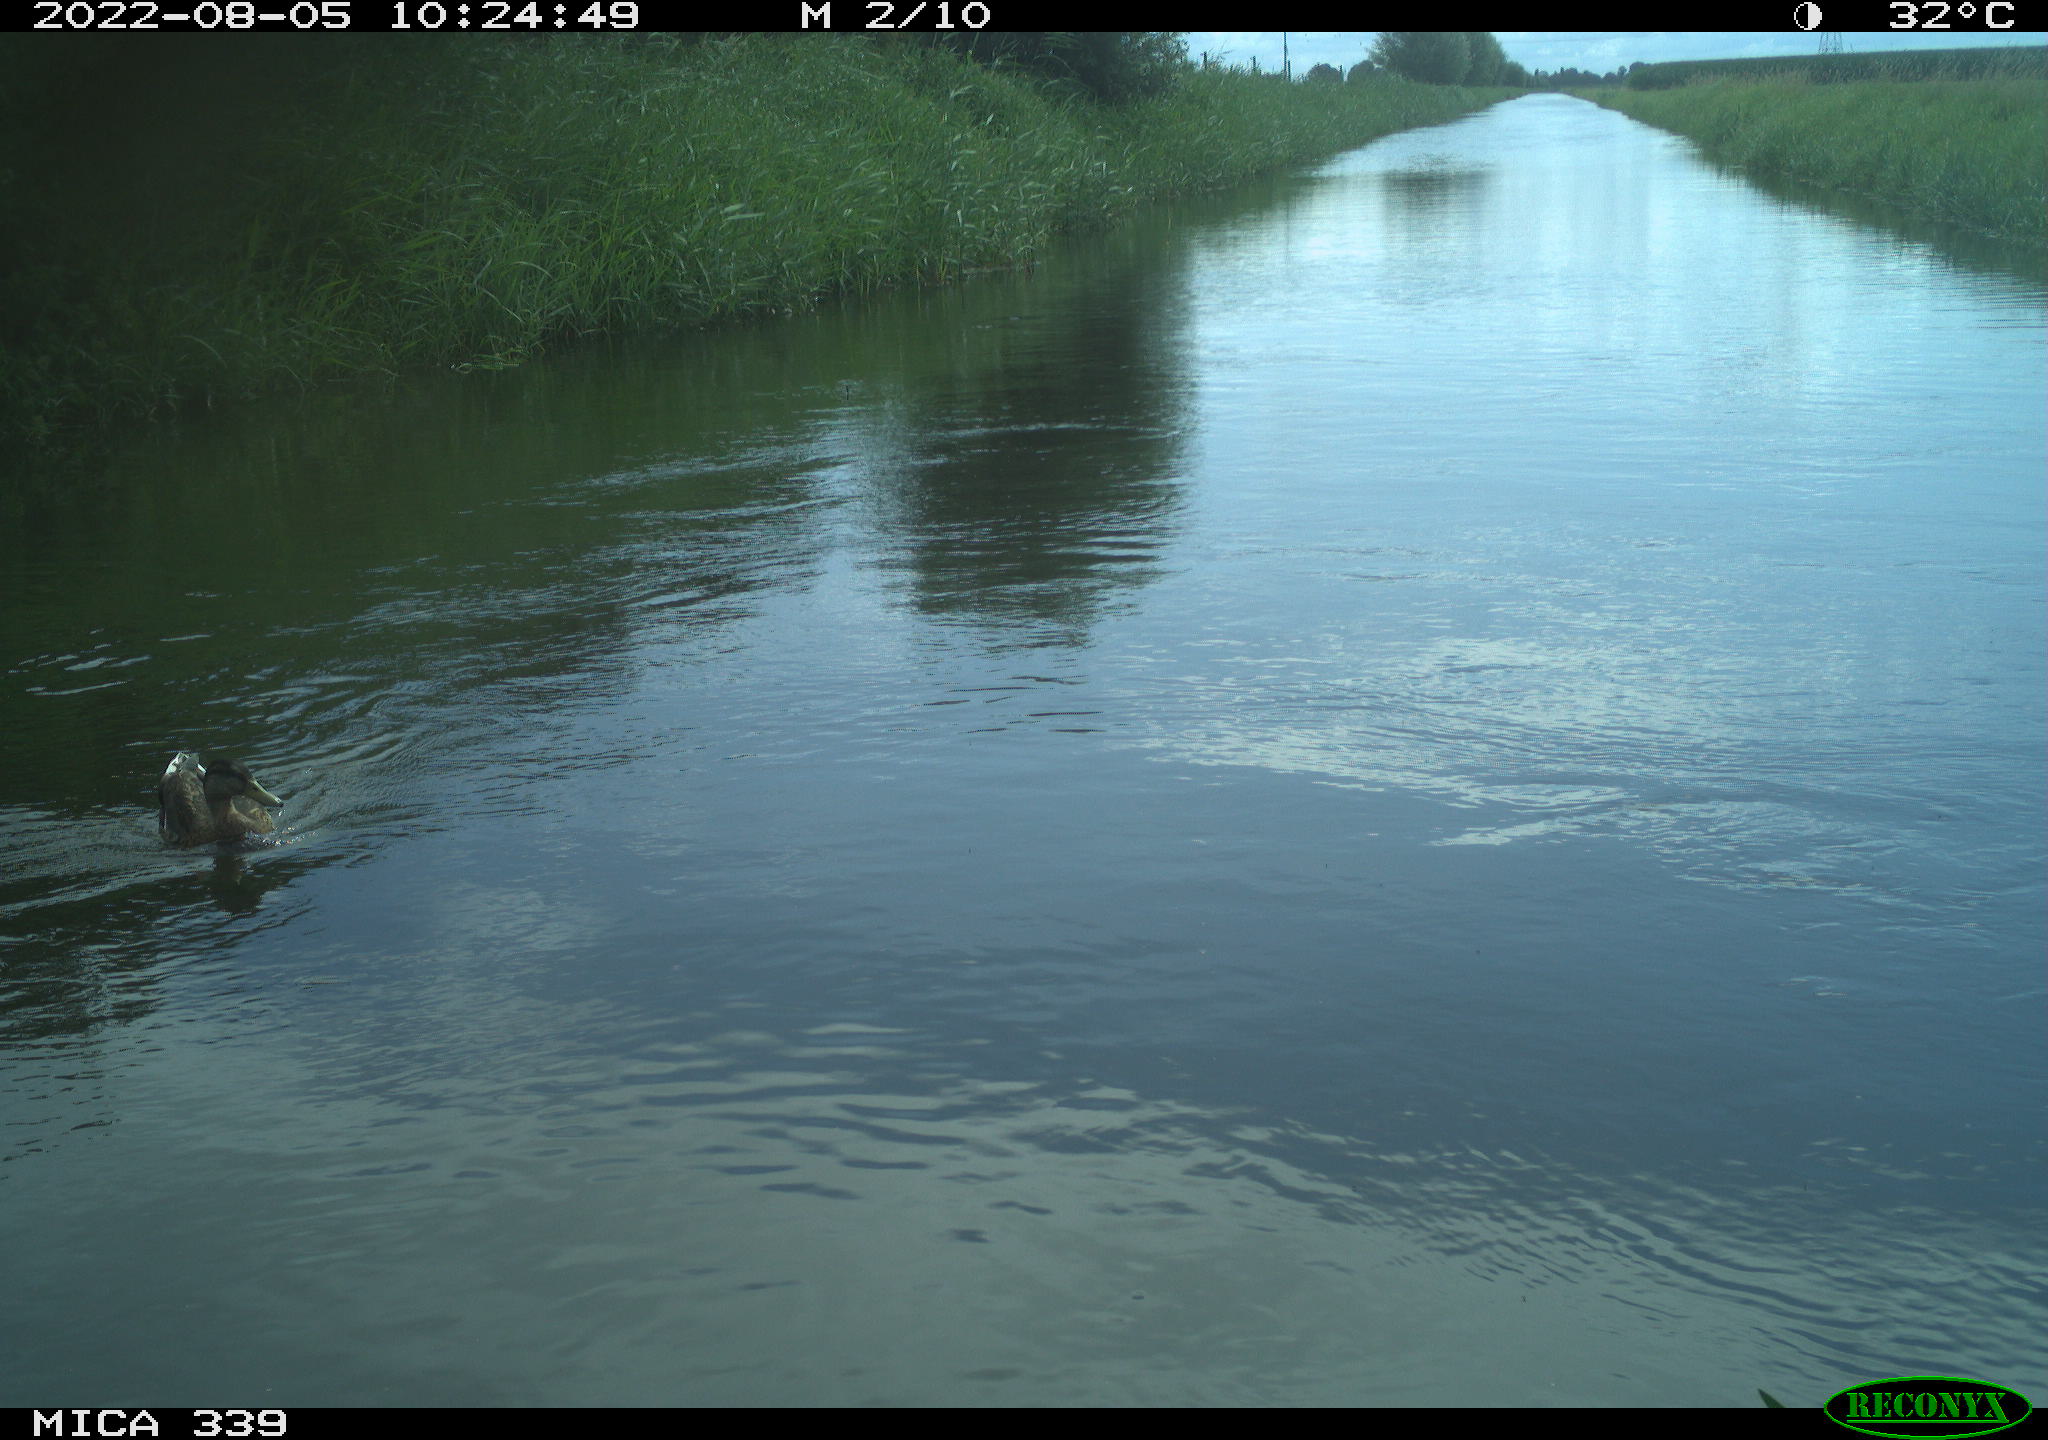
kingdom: Animalia
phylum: Chordata
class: Aves
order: Anseriformes
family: Anatidae
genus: Anas
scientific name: Anas platyrhynchos
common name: Mallard
